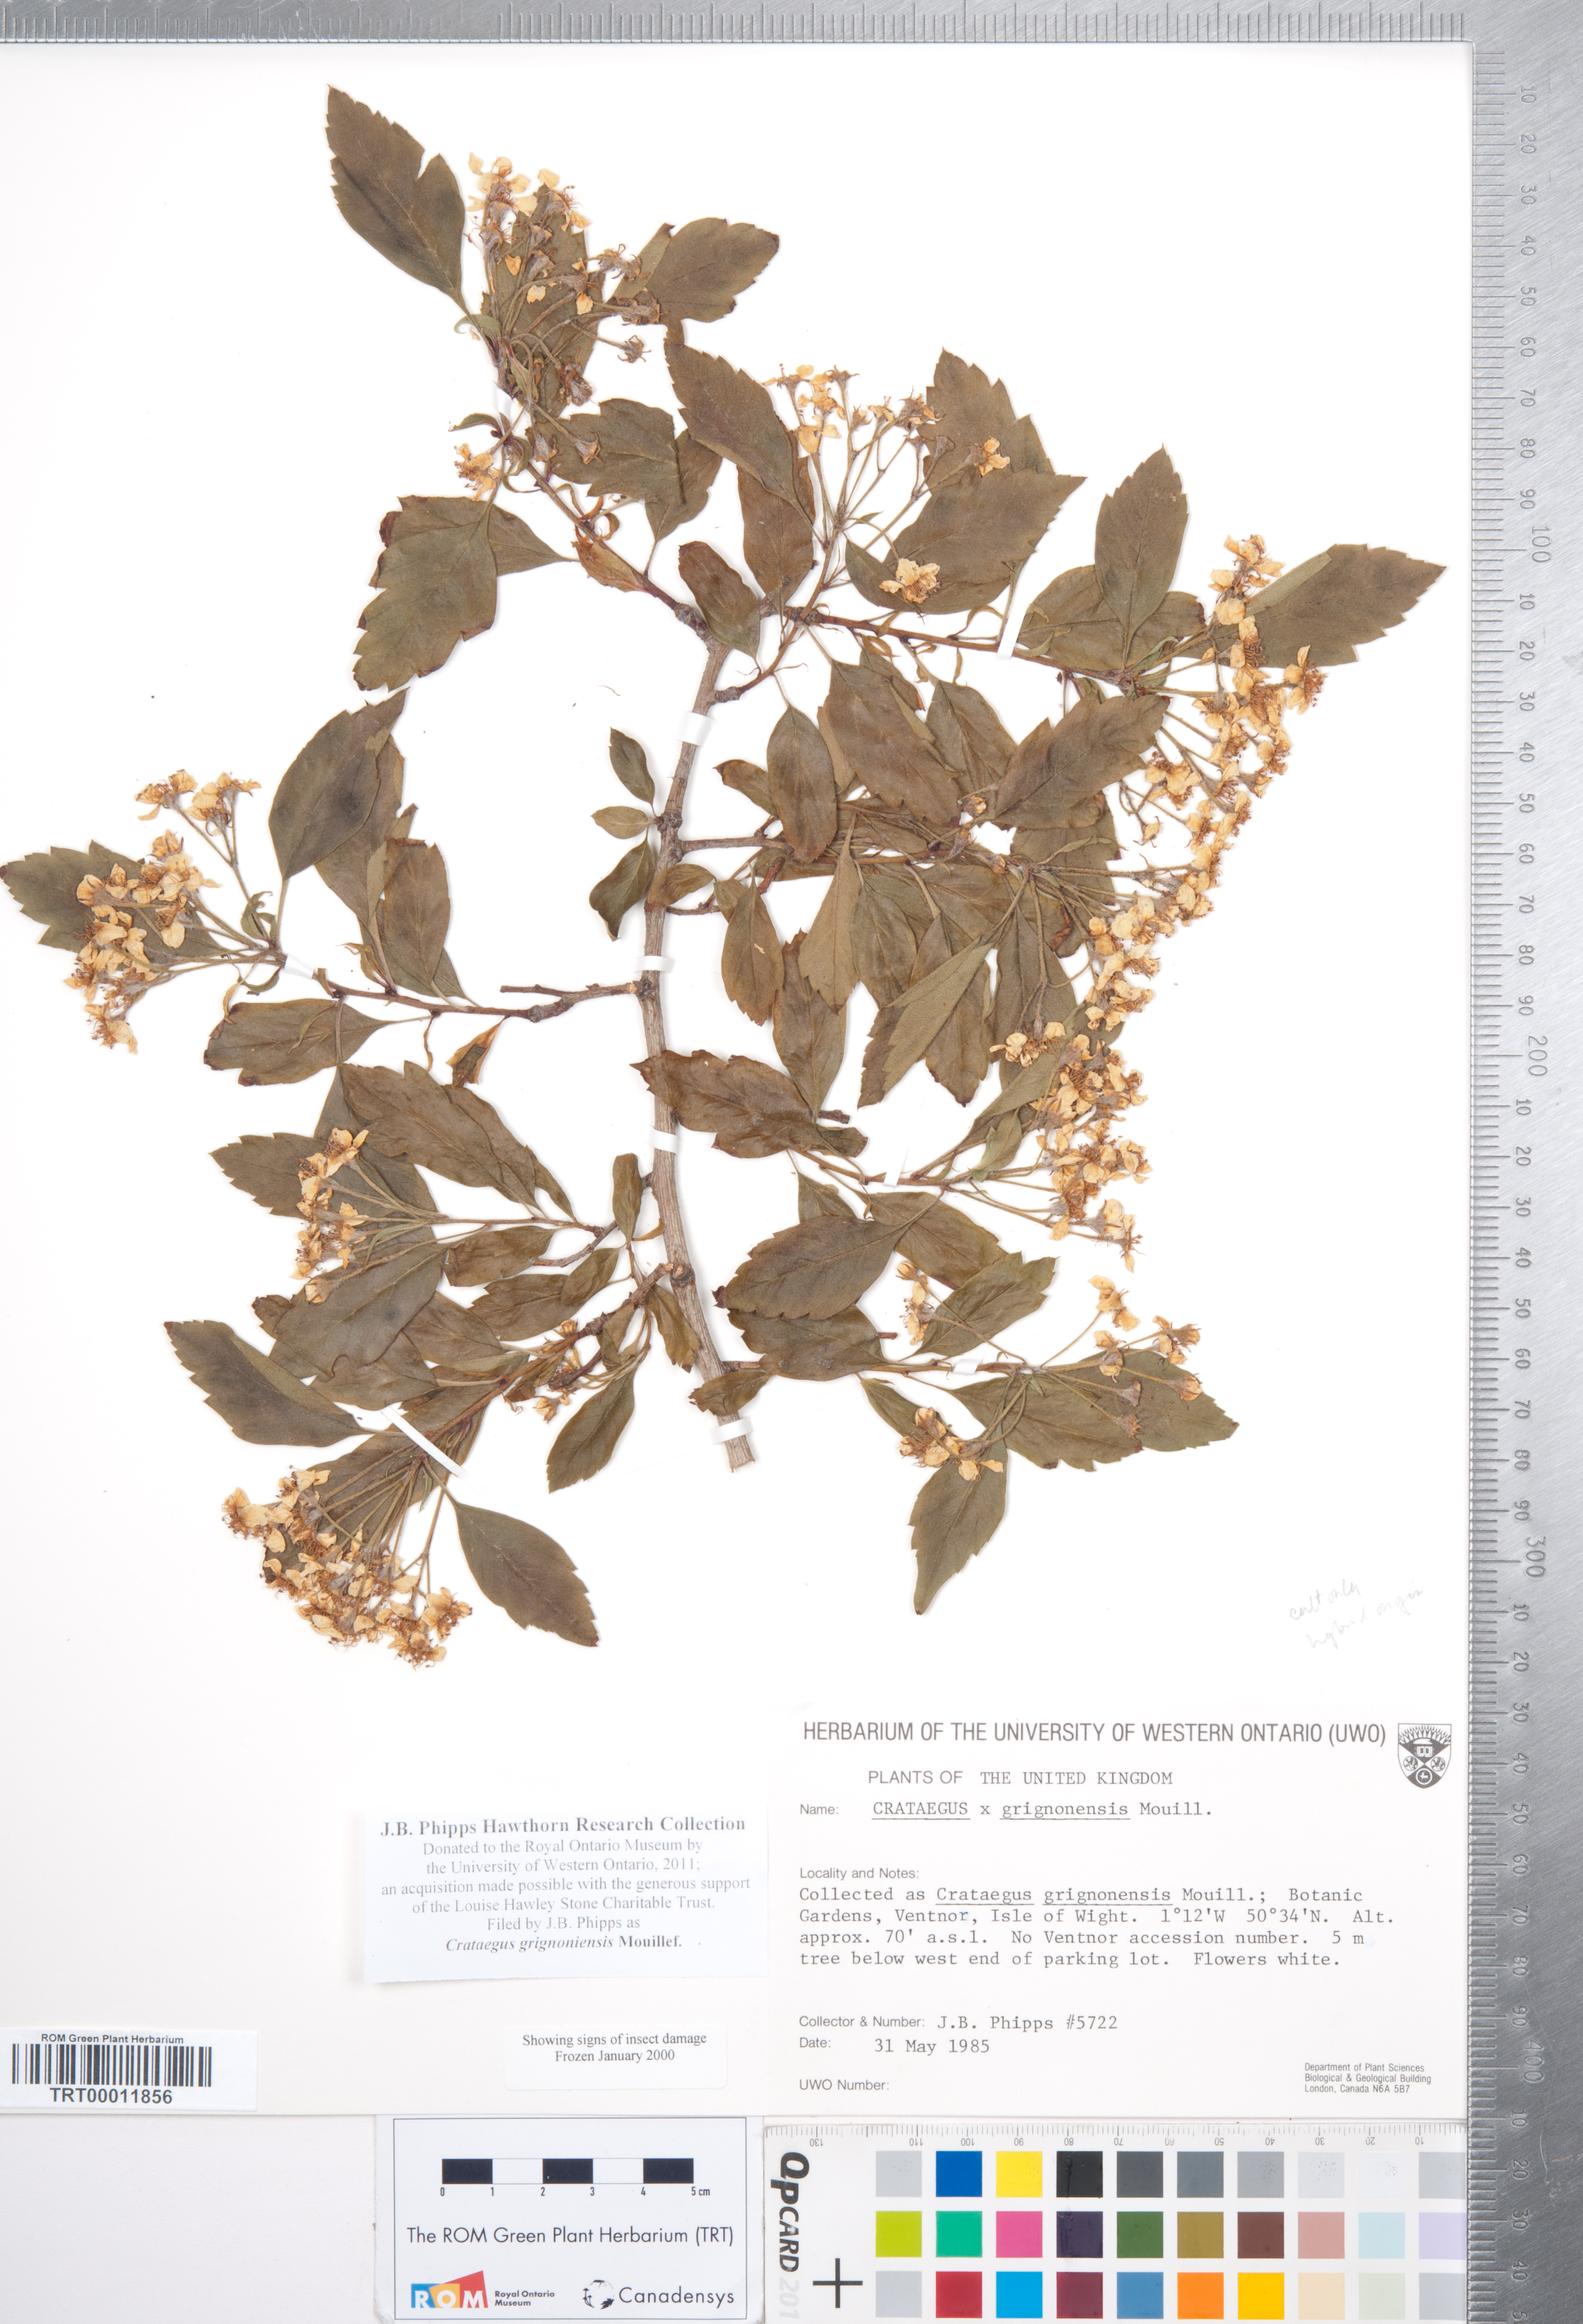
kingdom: Plantae
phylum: Tracheophyta
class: Magnoliopsida
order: Rosales
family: Rosaceae
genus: Crataegus
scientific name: Crataegus grignonensis
